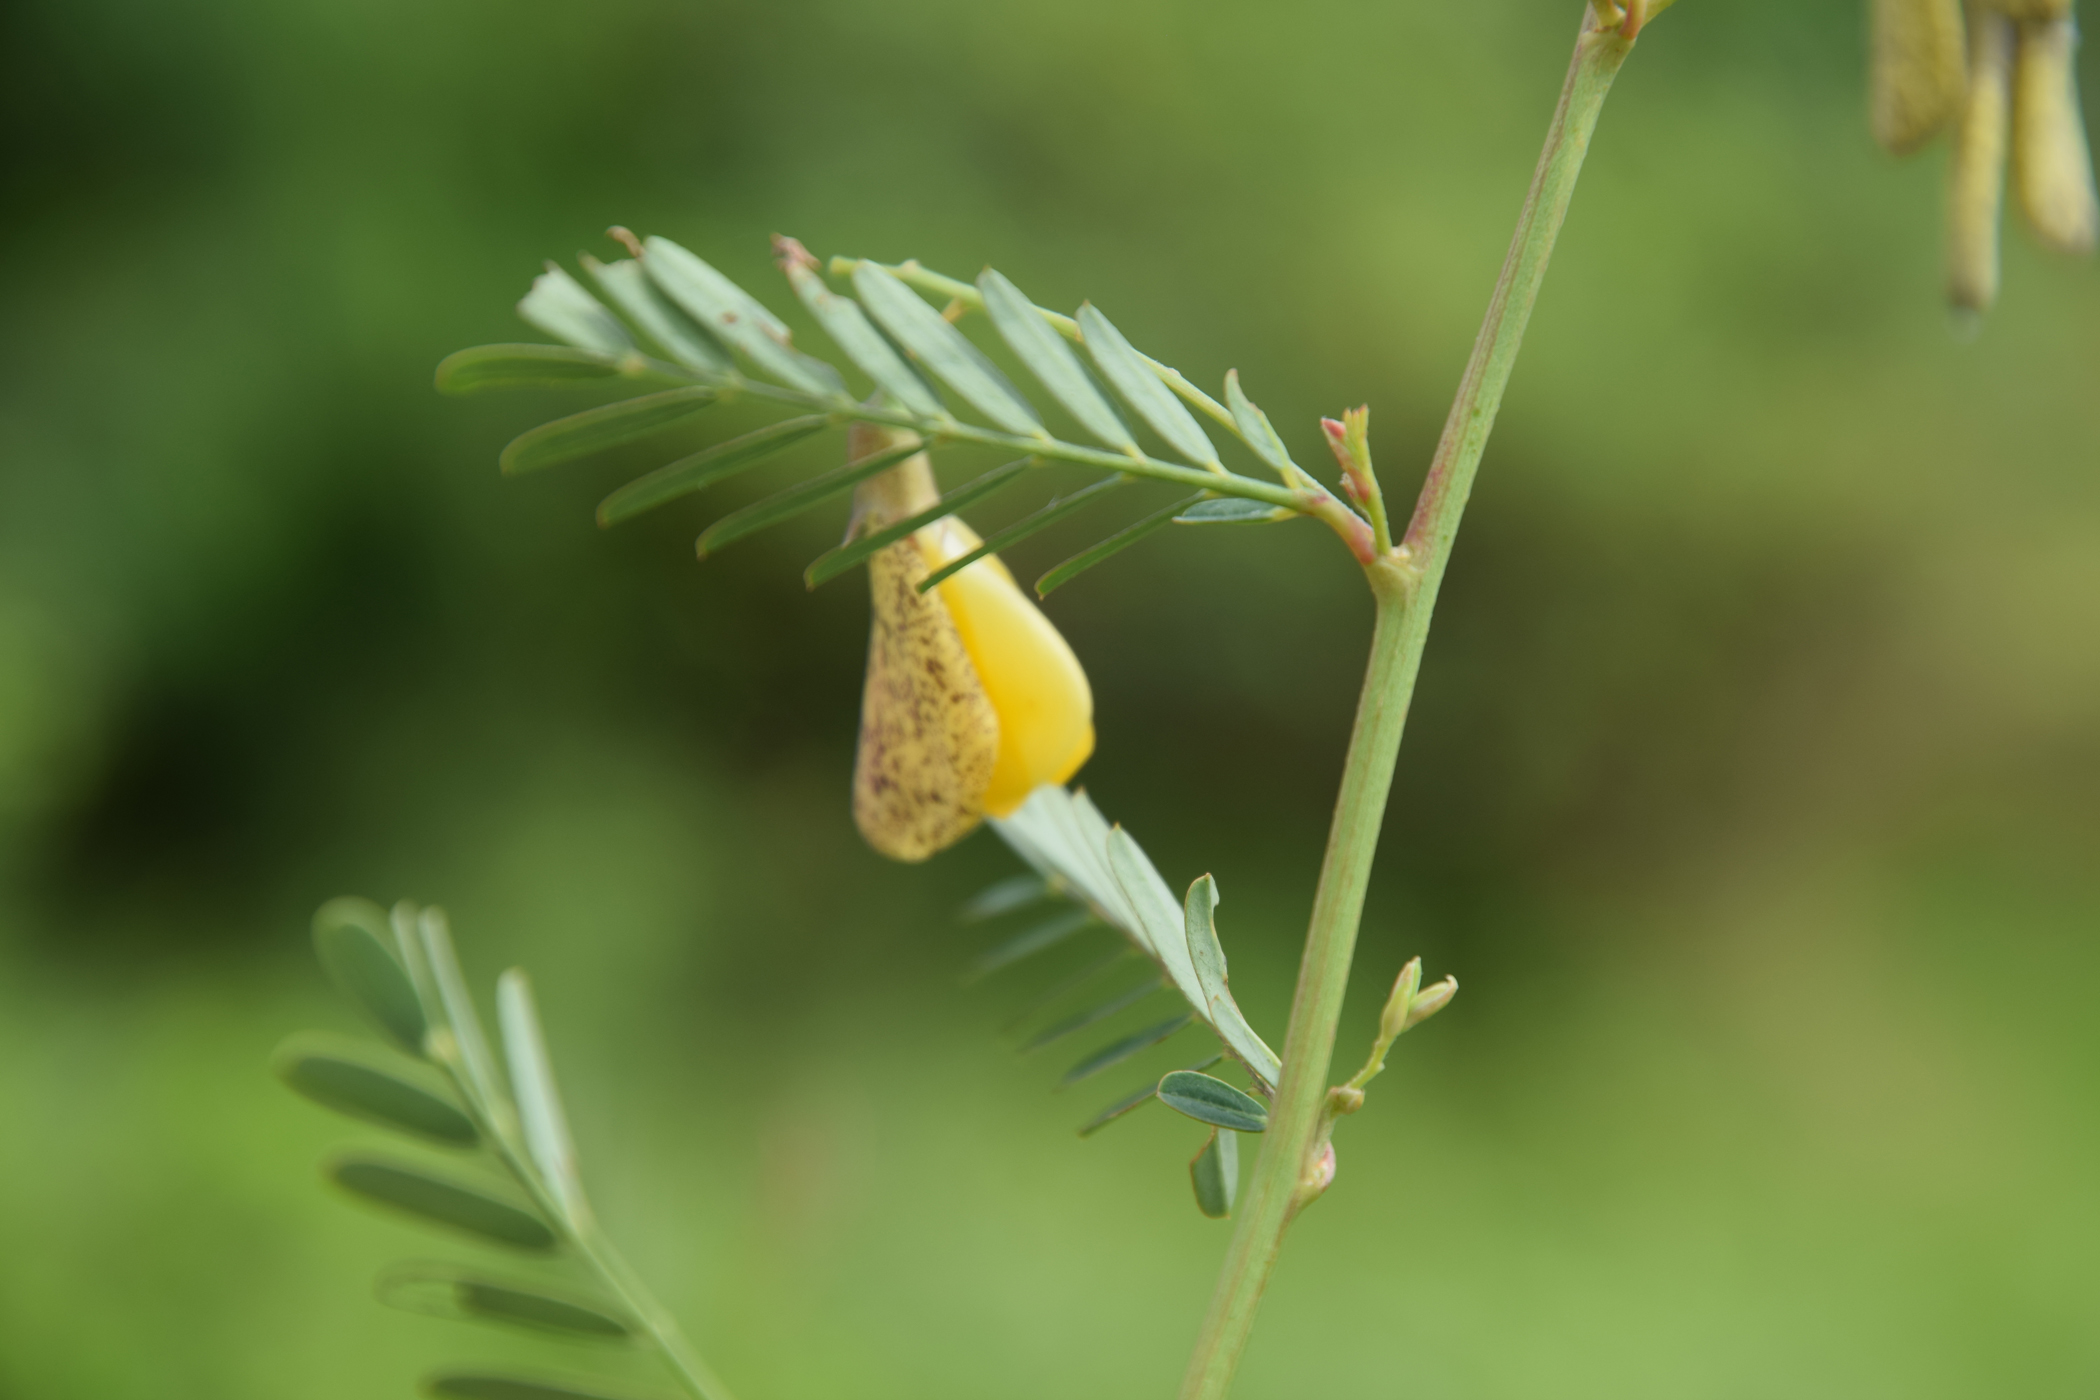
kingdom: Plantae
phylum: Tracheophyta
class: Magnoliopsida
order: Fabales
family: Fabaceae
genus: Sesbania
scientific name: Sesbania javanica
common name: Sesbania-pea
